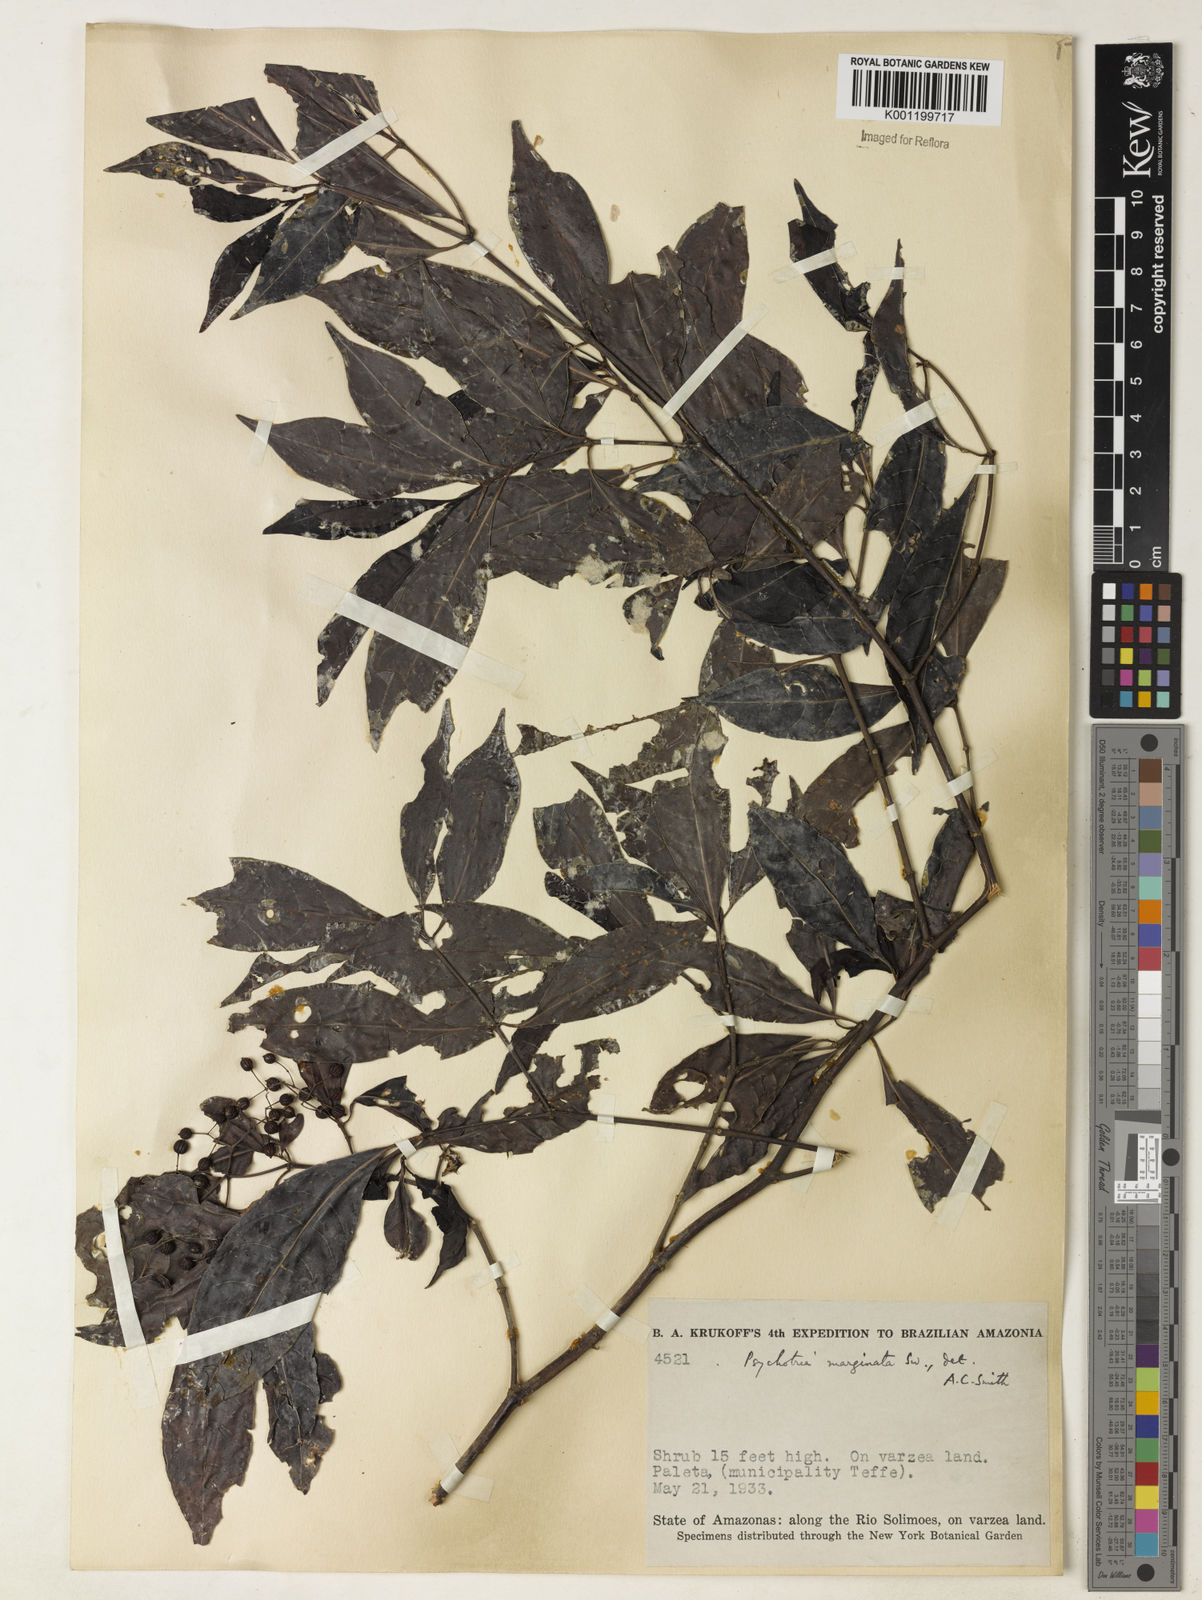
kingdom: Plantae
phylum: Tracheophyta
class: Magnoliopsida
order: Gentianales
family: Rubiaceae
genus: Psychotria
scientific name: Psychotria marginata
